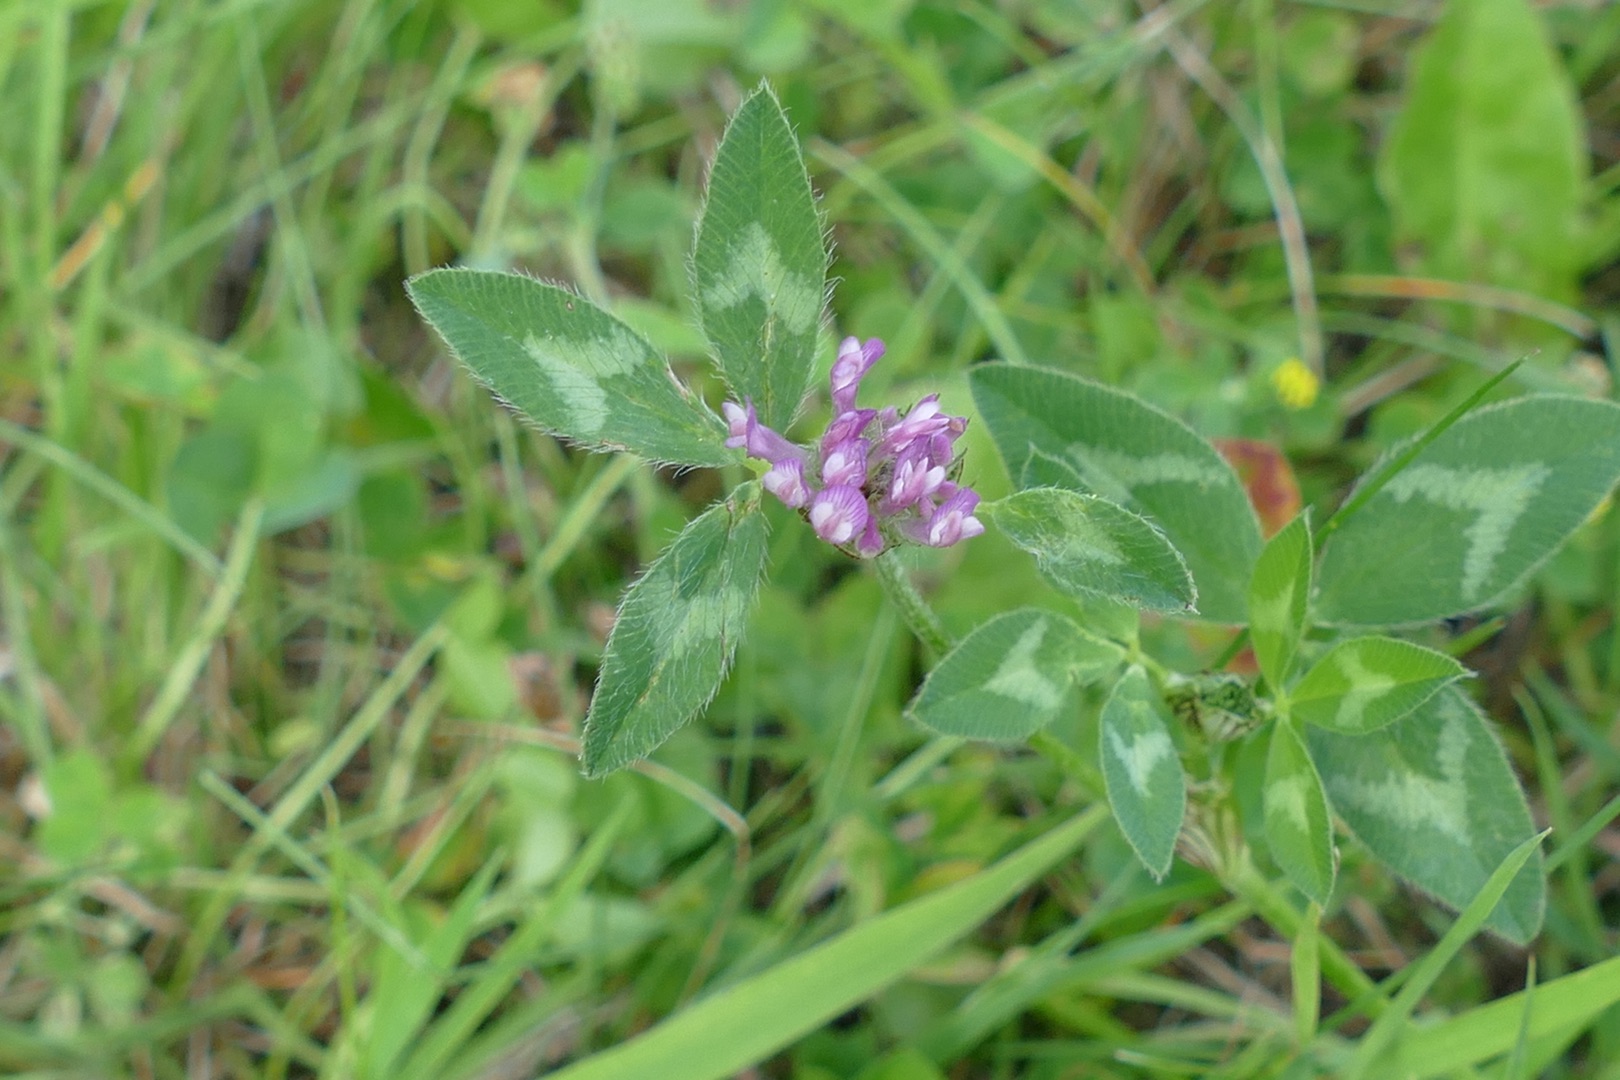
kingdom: Plantae
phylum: Tracheophyta
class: Magnoliopsida
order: Fabales
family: Fabaceae
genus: Trifolium
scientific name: Trifolium pratense
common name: Rød-kløver
